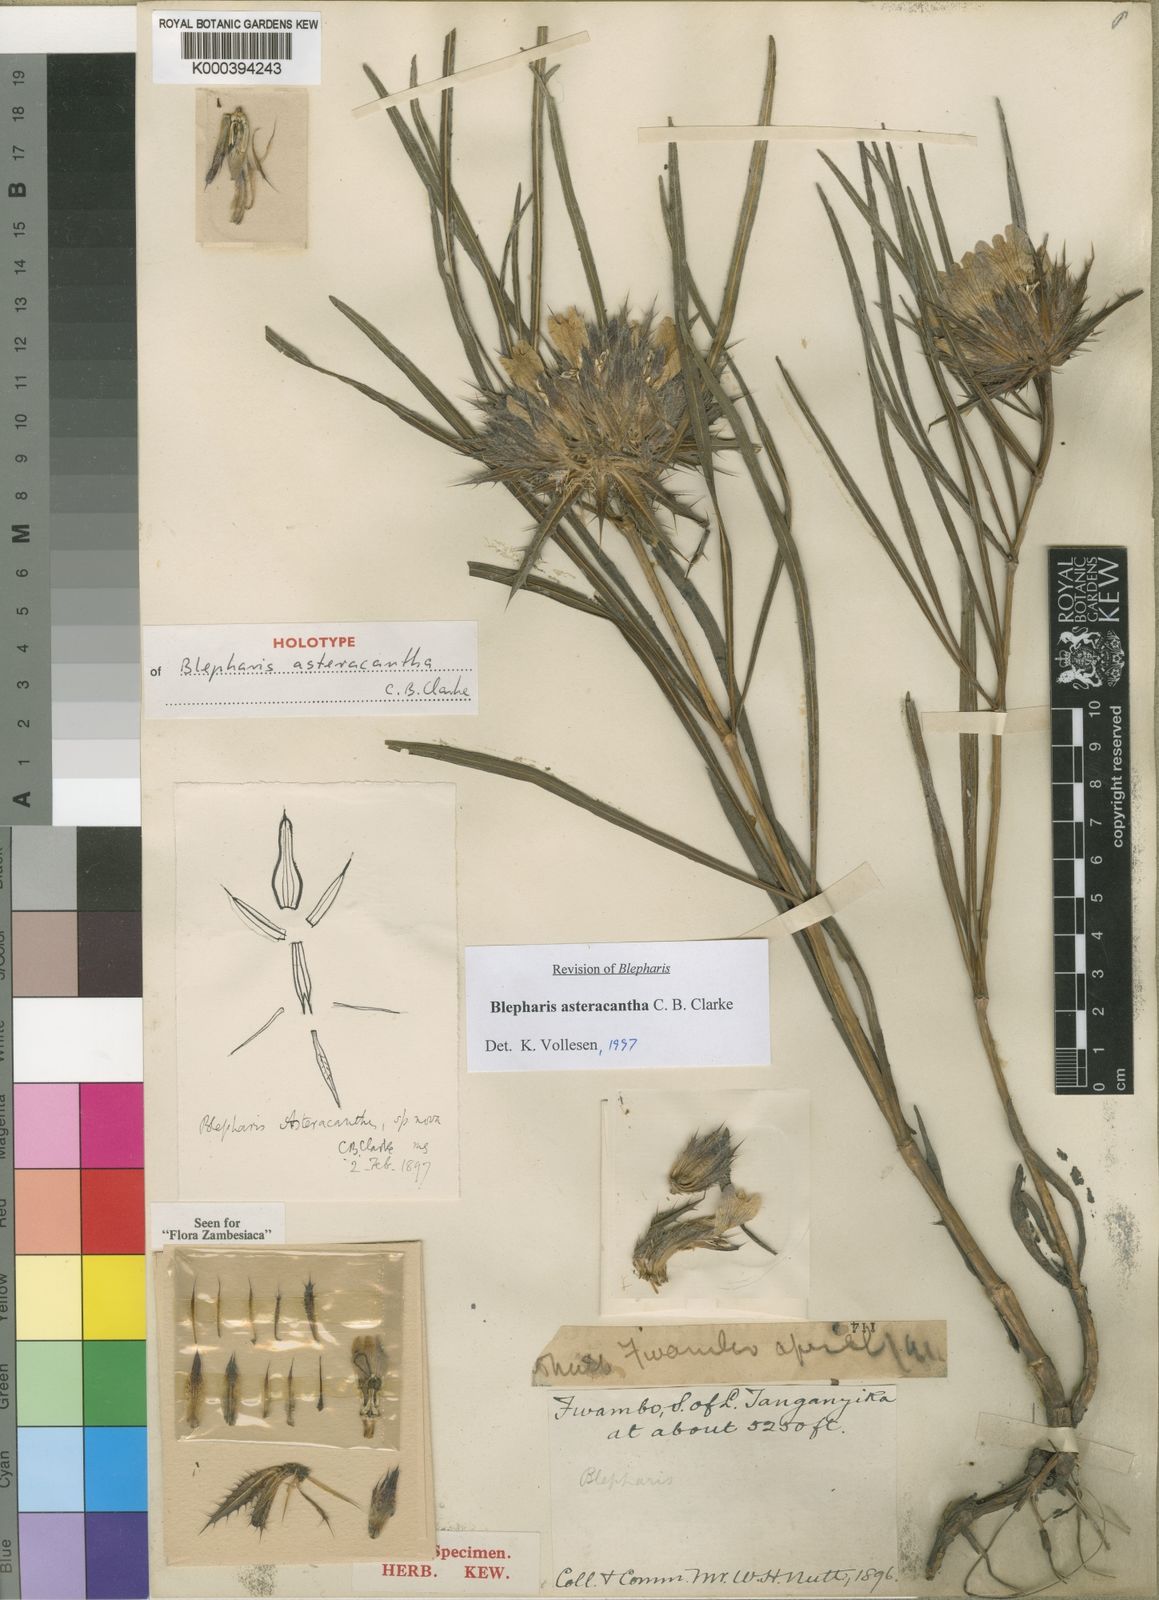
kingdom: Plantae
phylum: Tracheophyta
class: Magnoliopsida
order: Lamiales
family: Acanthaceae
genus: Blepharis
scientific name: Blepharis asteracantha
